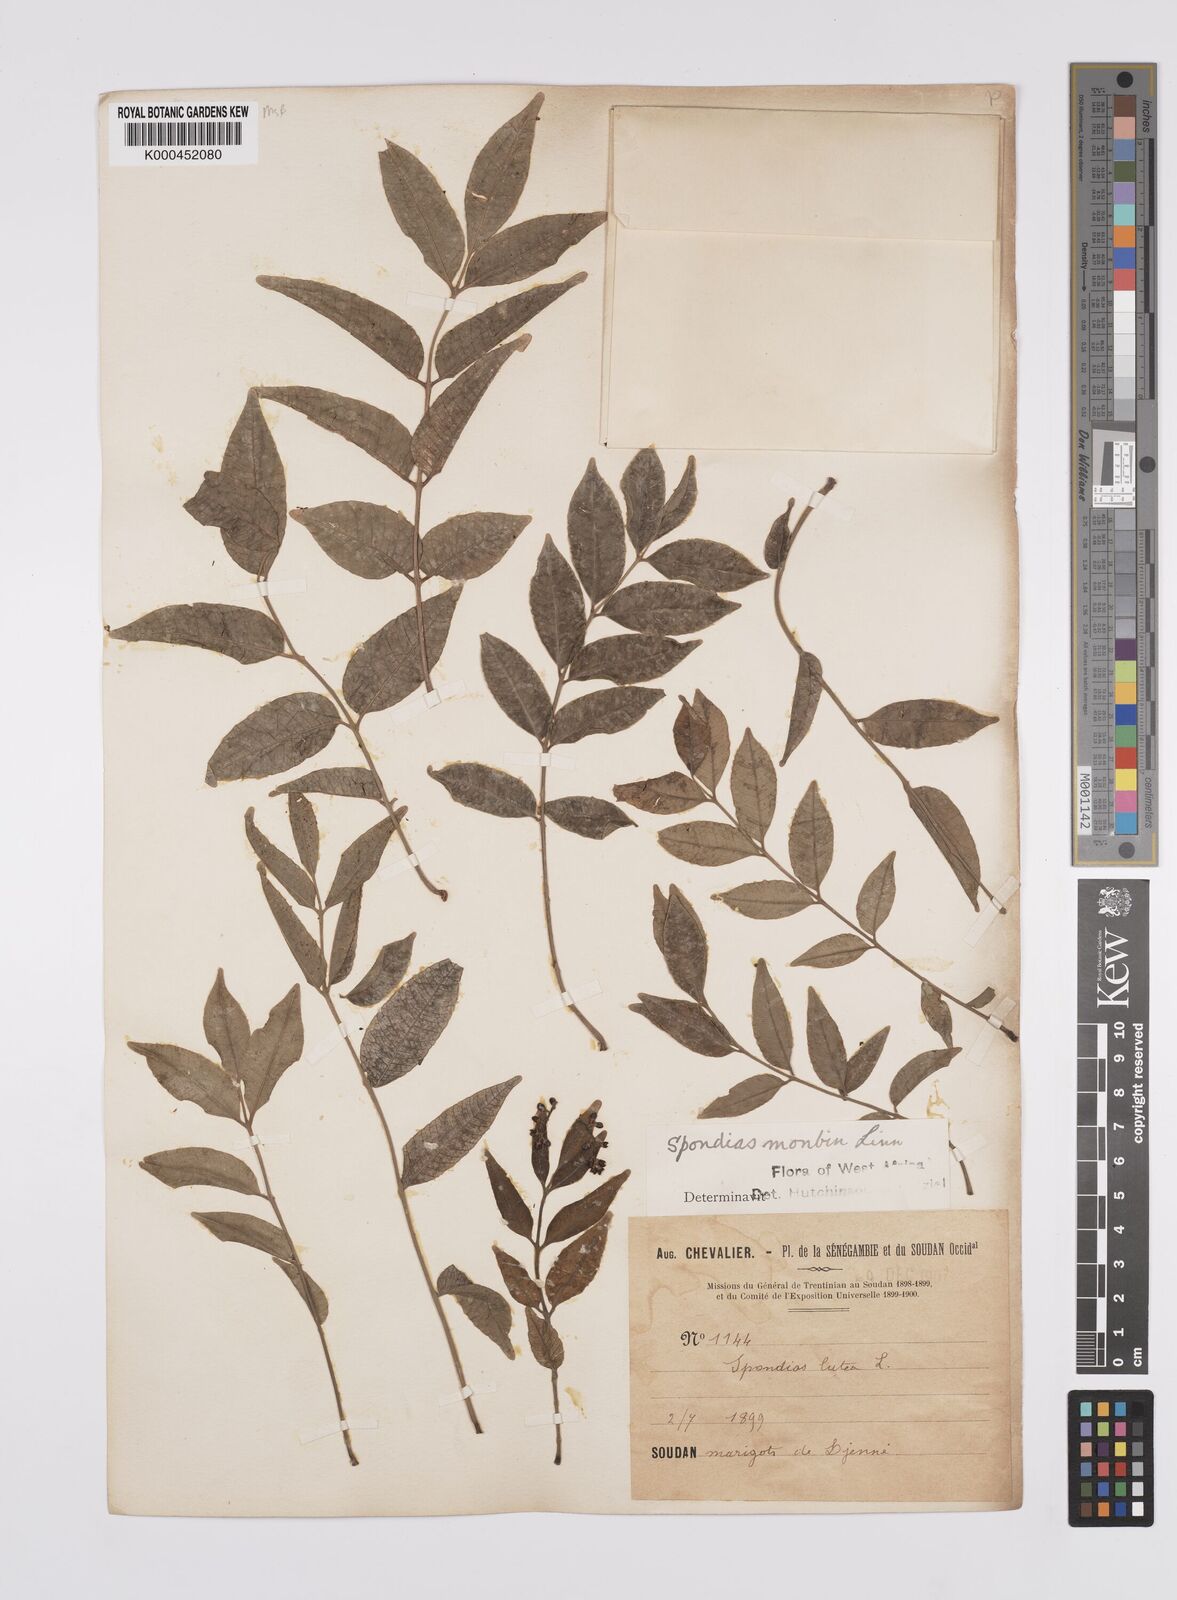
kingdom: Plantae
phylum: Tracheophyta
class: Magnoliopsida
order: Sapindales
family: Anacardiaceae
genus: Spondias
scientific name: Spondias mombin
